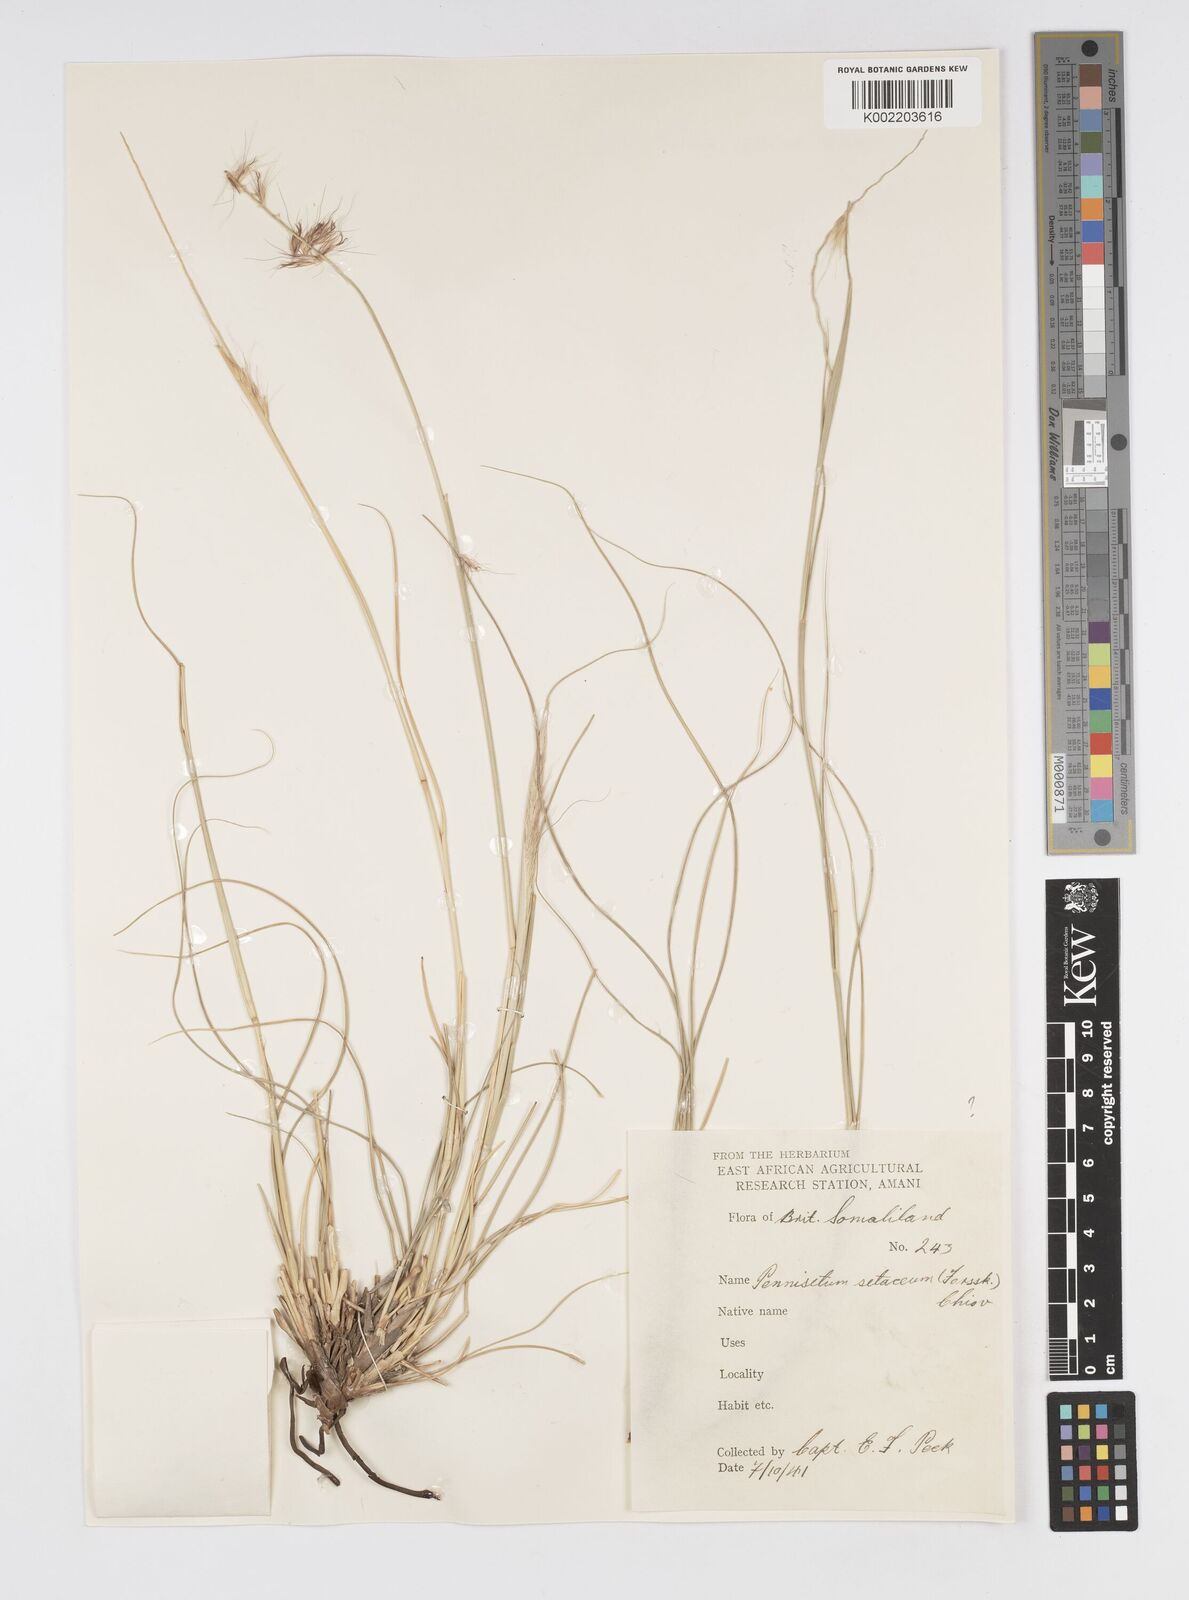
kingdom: Plantae
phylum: Tracheophyta
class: Liliopsida
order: Poales
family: Poaceae
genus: Cenchrus
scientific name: Cenchrus setaceus
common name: Crimson fountaingrass
